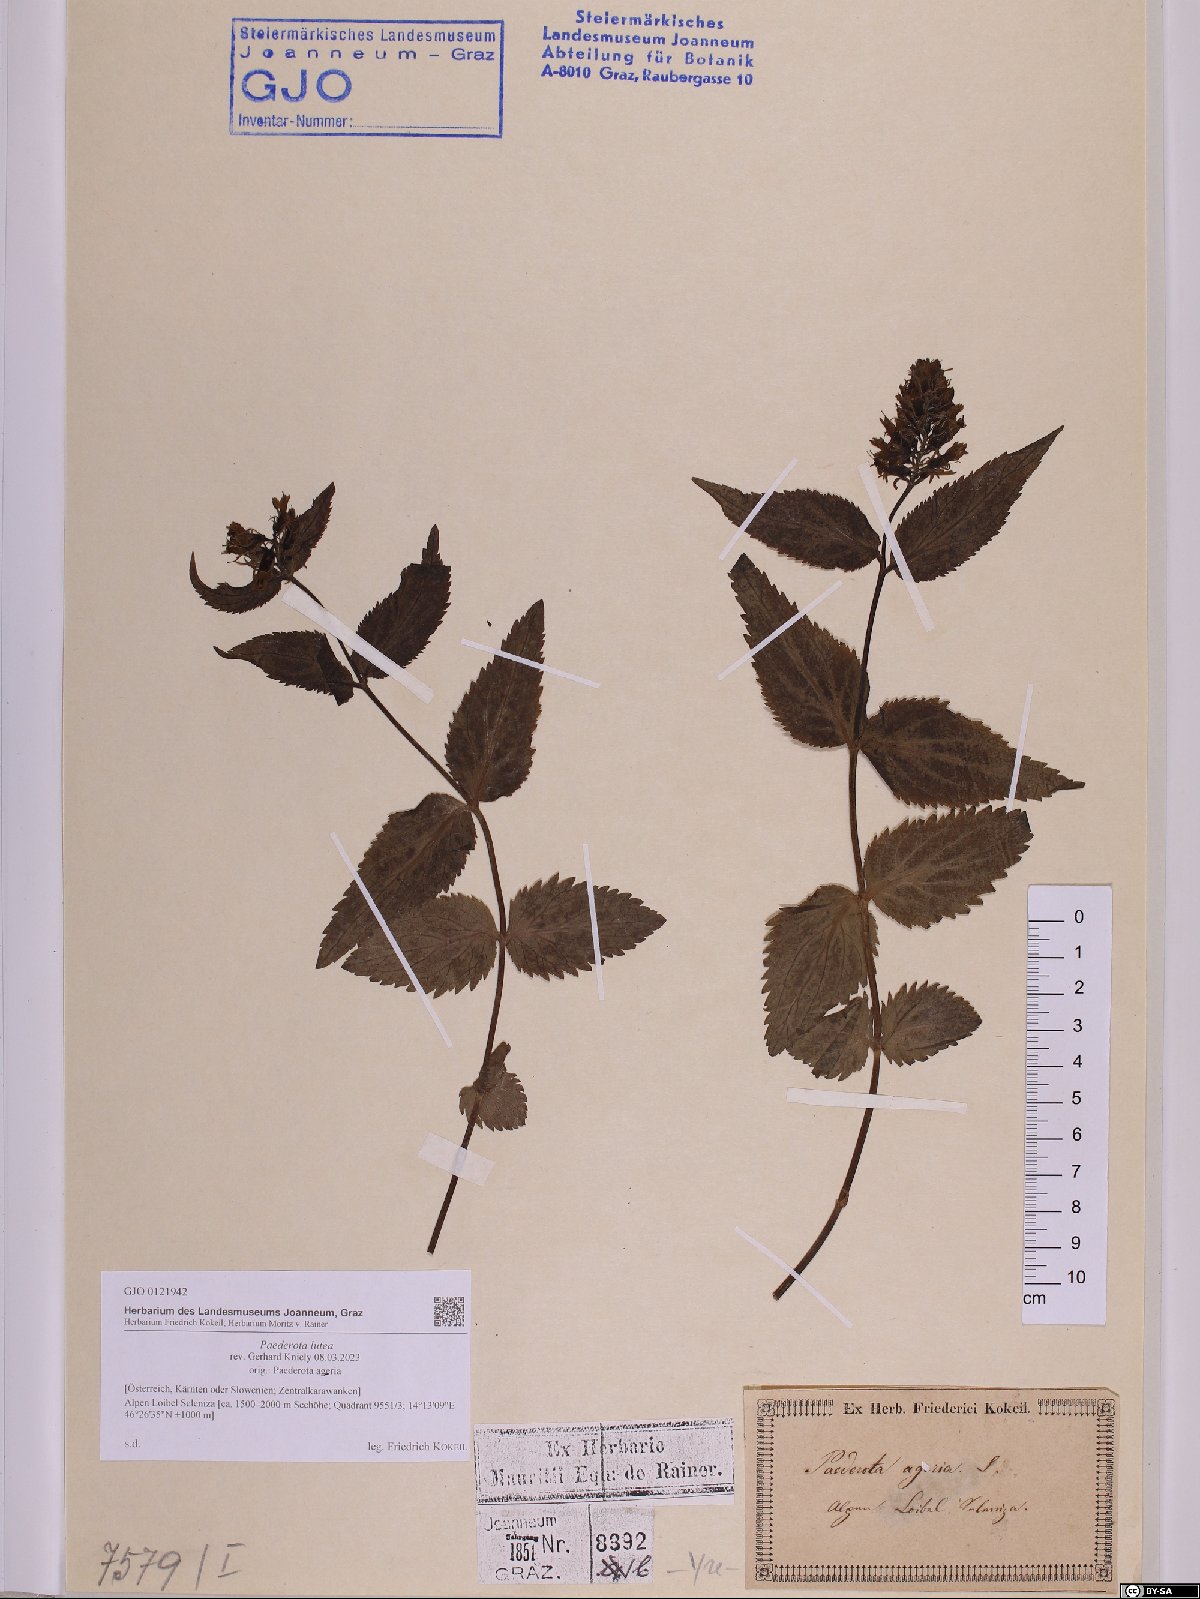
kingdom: Plantae
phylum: Tracheophyta
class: Magnoliopsida
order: Lamiales
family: Plantaginaceae
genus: Paederota
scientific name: Paederota lutea
